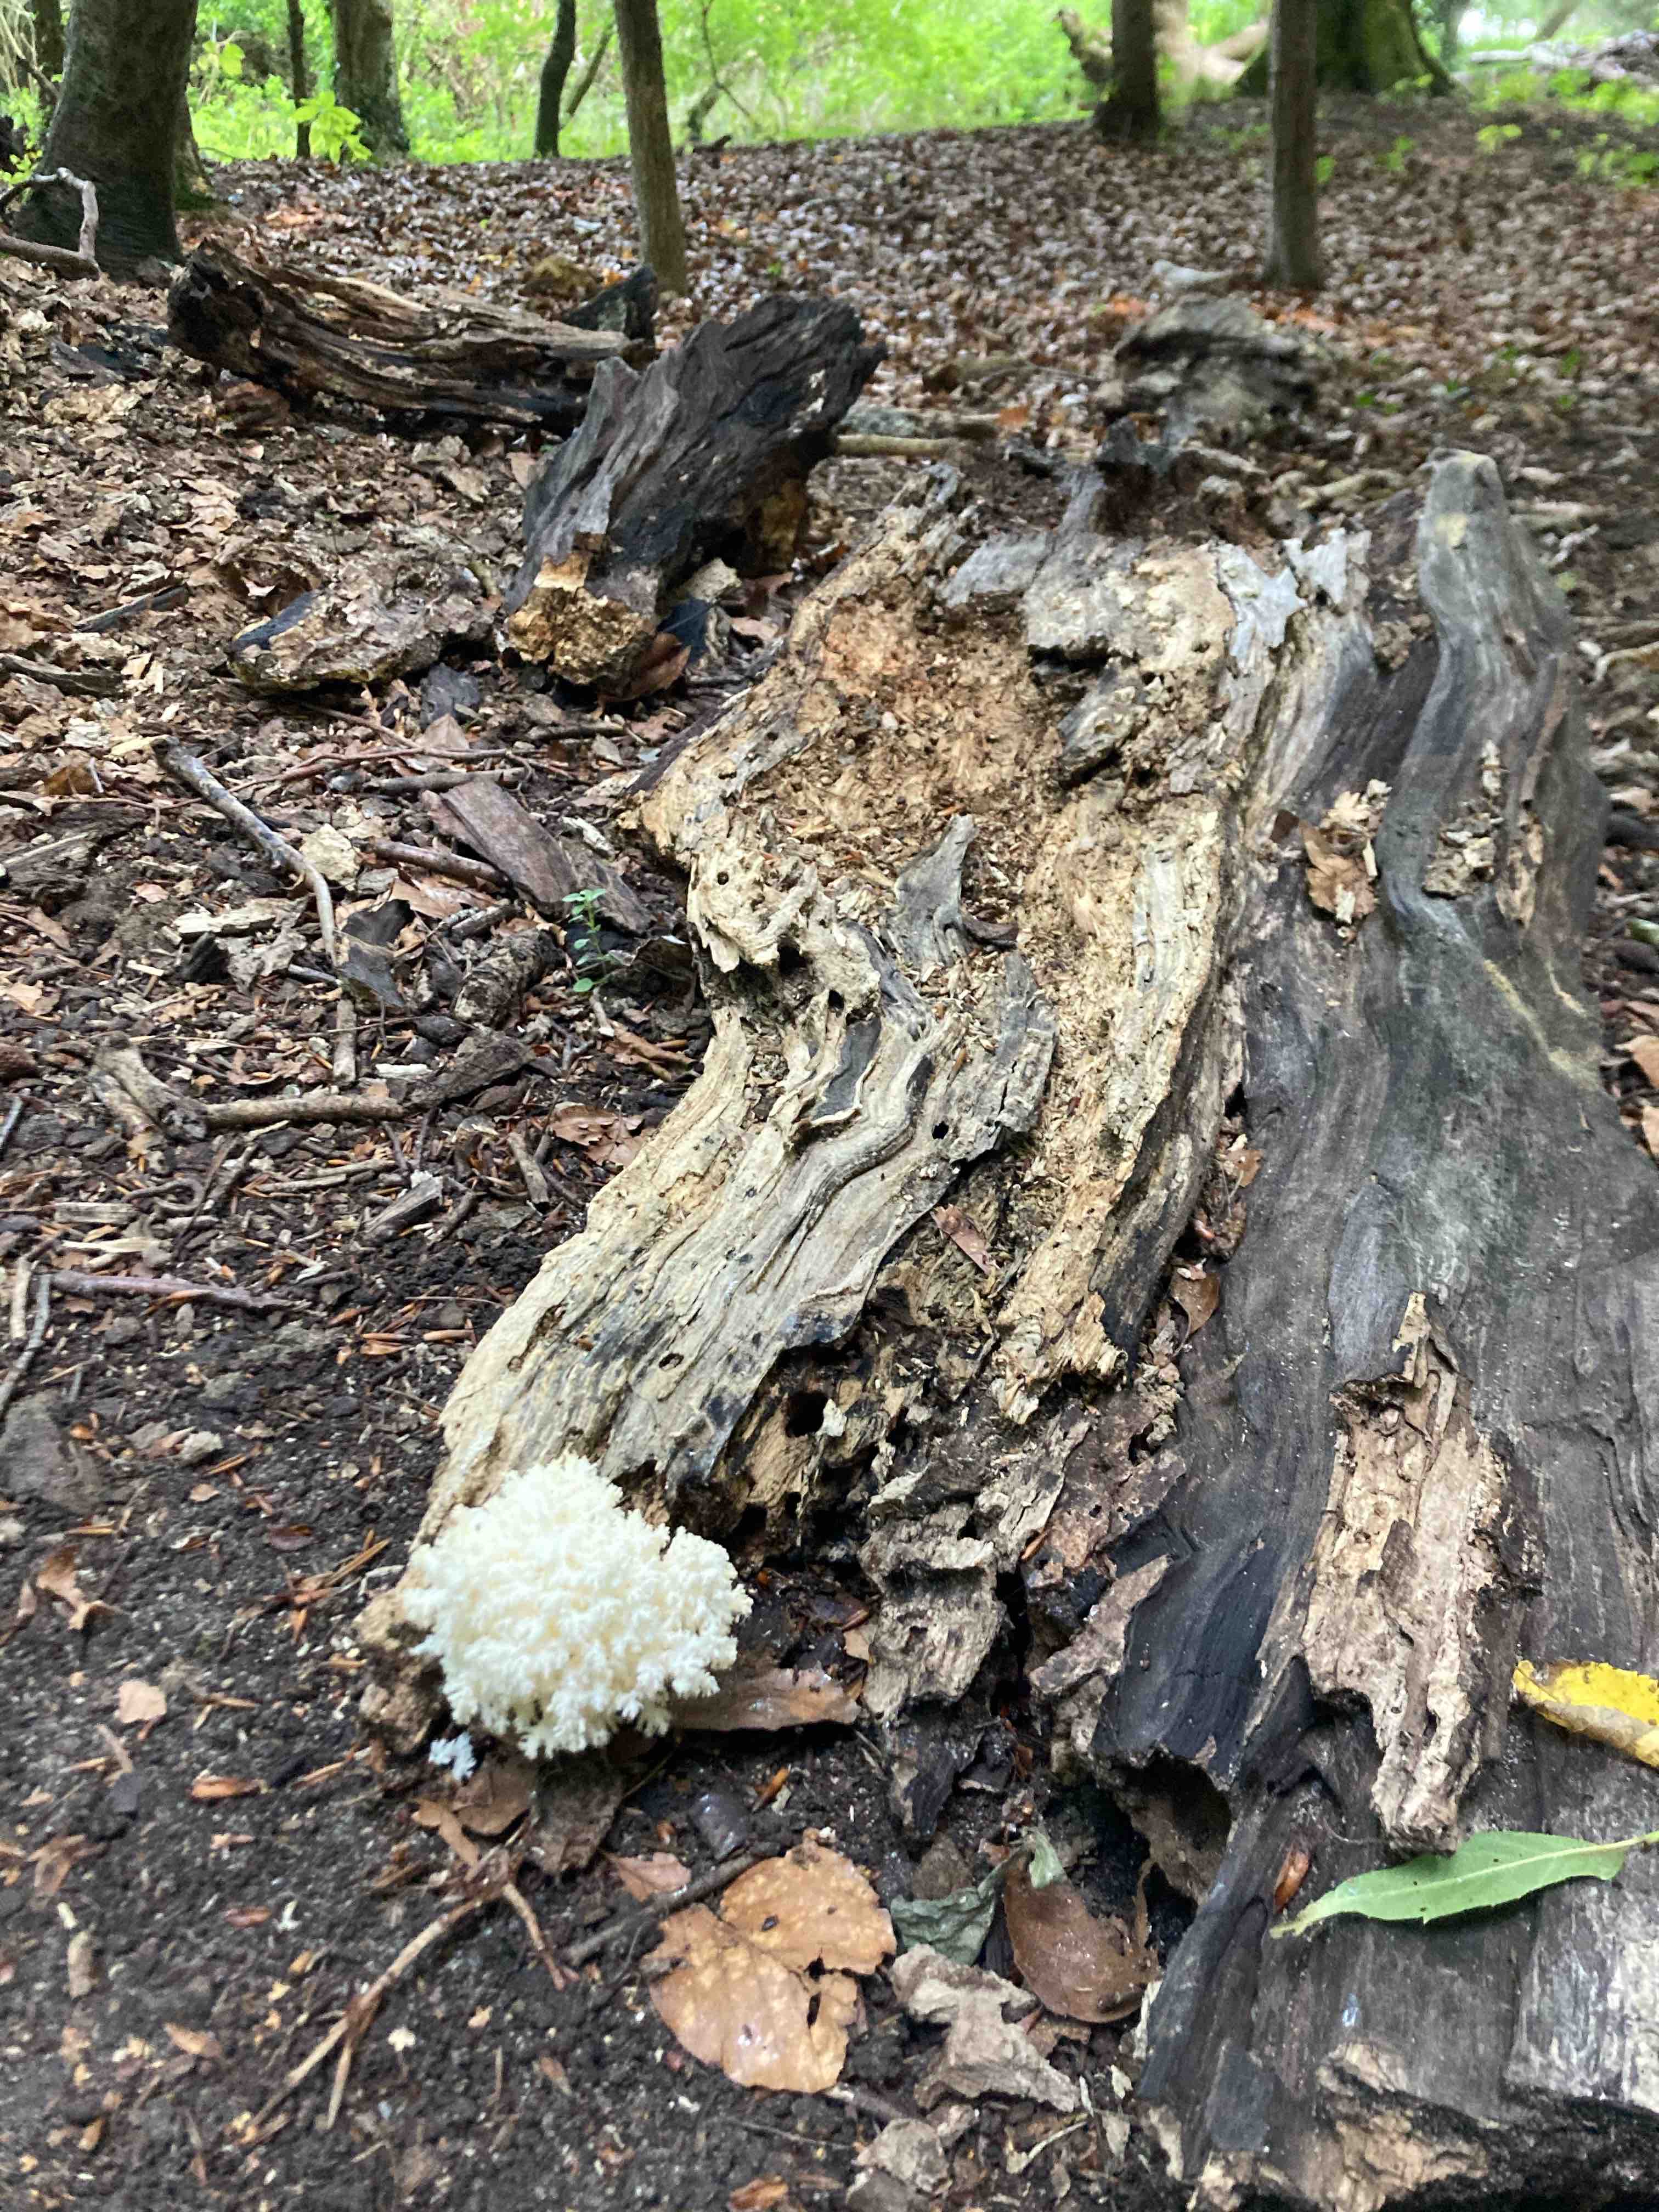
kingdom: Fungi
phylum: Basidiomycota
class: Agaricomycetes
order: Russulales
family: Hericiaceae
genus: Hericium
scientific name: Hericium coralloides
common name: koralpigsvamp
